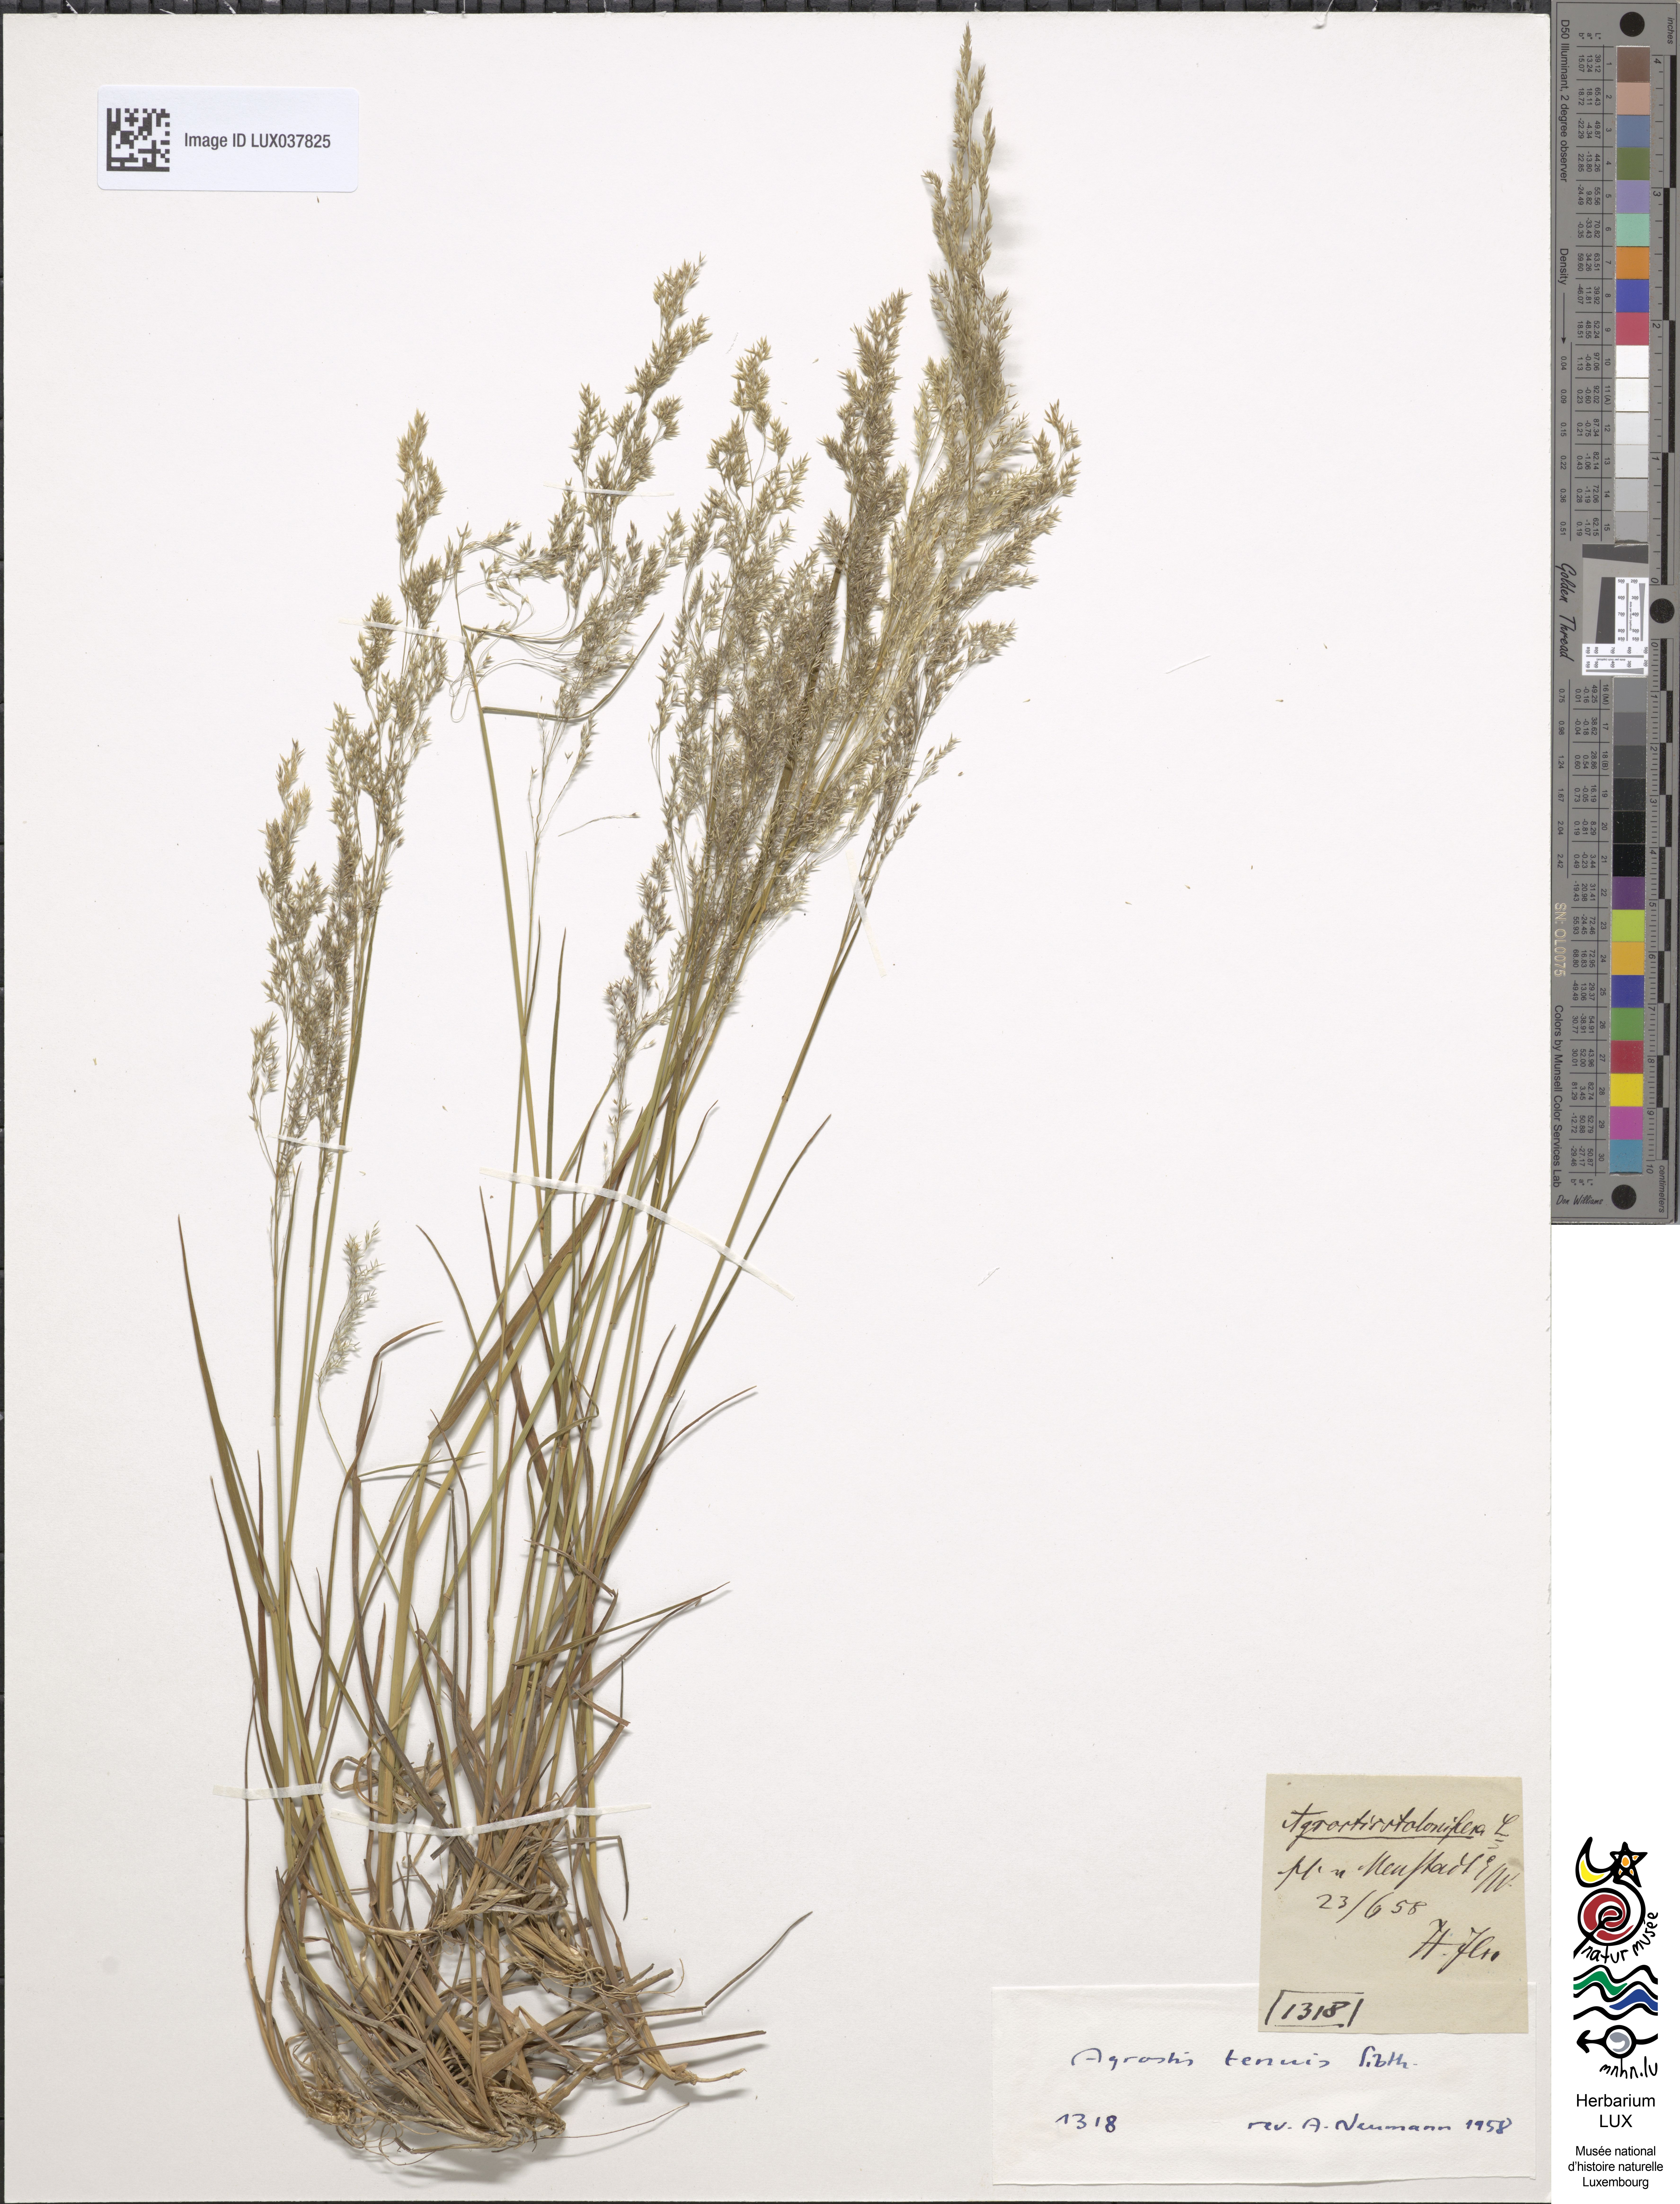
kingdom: Plantae
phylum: Tracheophyta
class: Liliopsida
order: Poales
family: Poaceae
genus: Agrostis
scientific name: Agrostis stolonifera
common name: Creeping bentgrass
